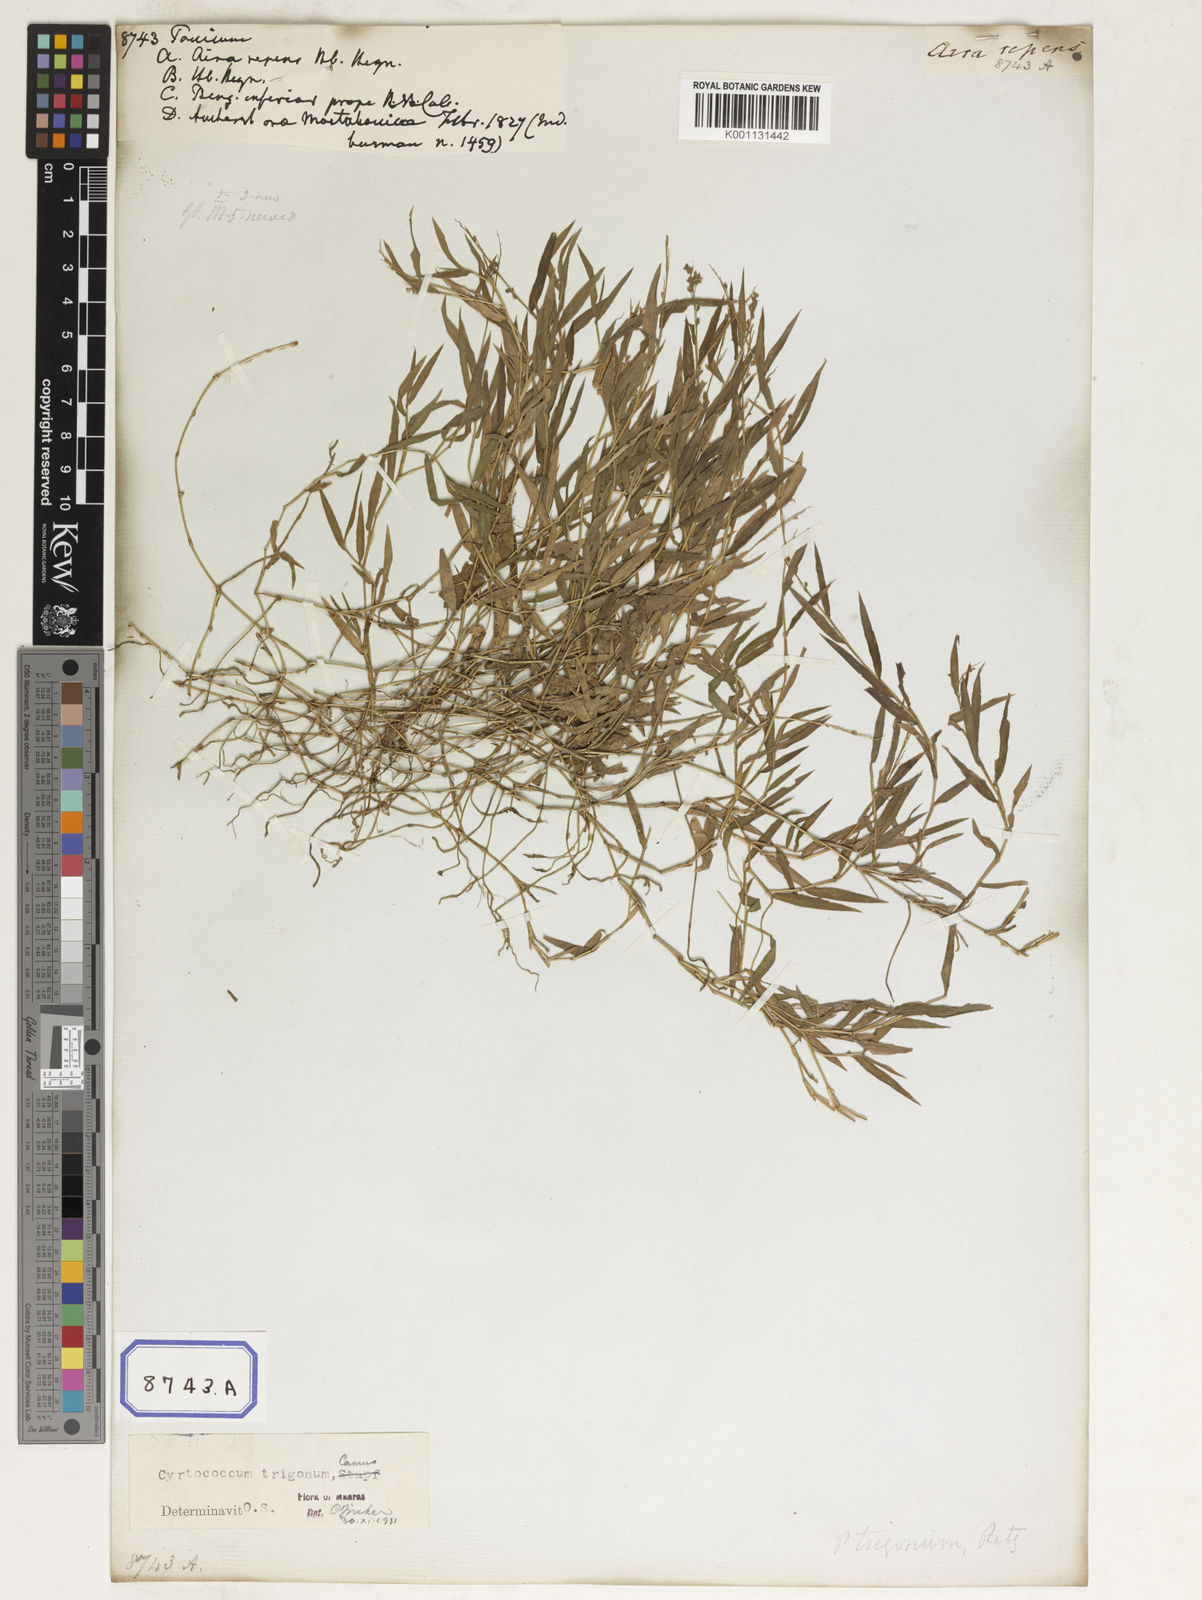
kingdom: Plantae
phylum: Tracheophyta
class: Liliopsida
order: Poales
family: Poaceae
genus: Panicum
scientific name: Panicum
